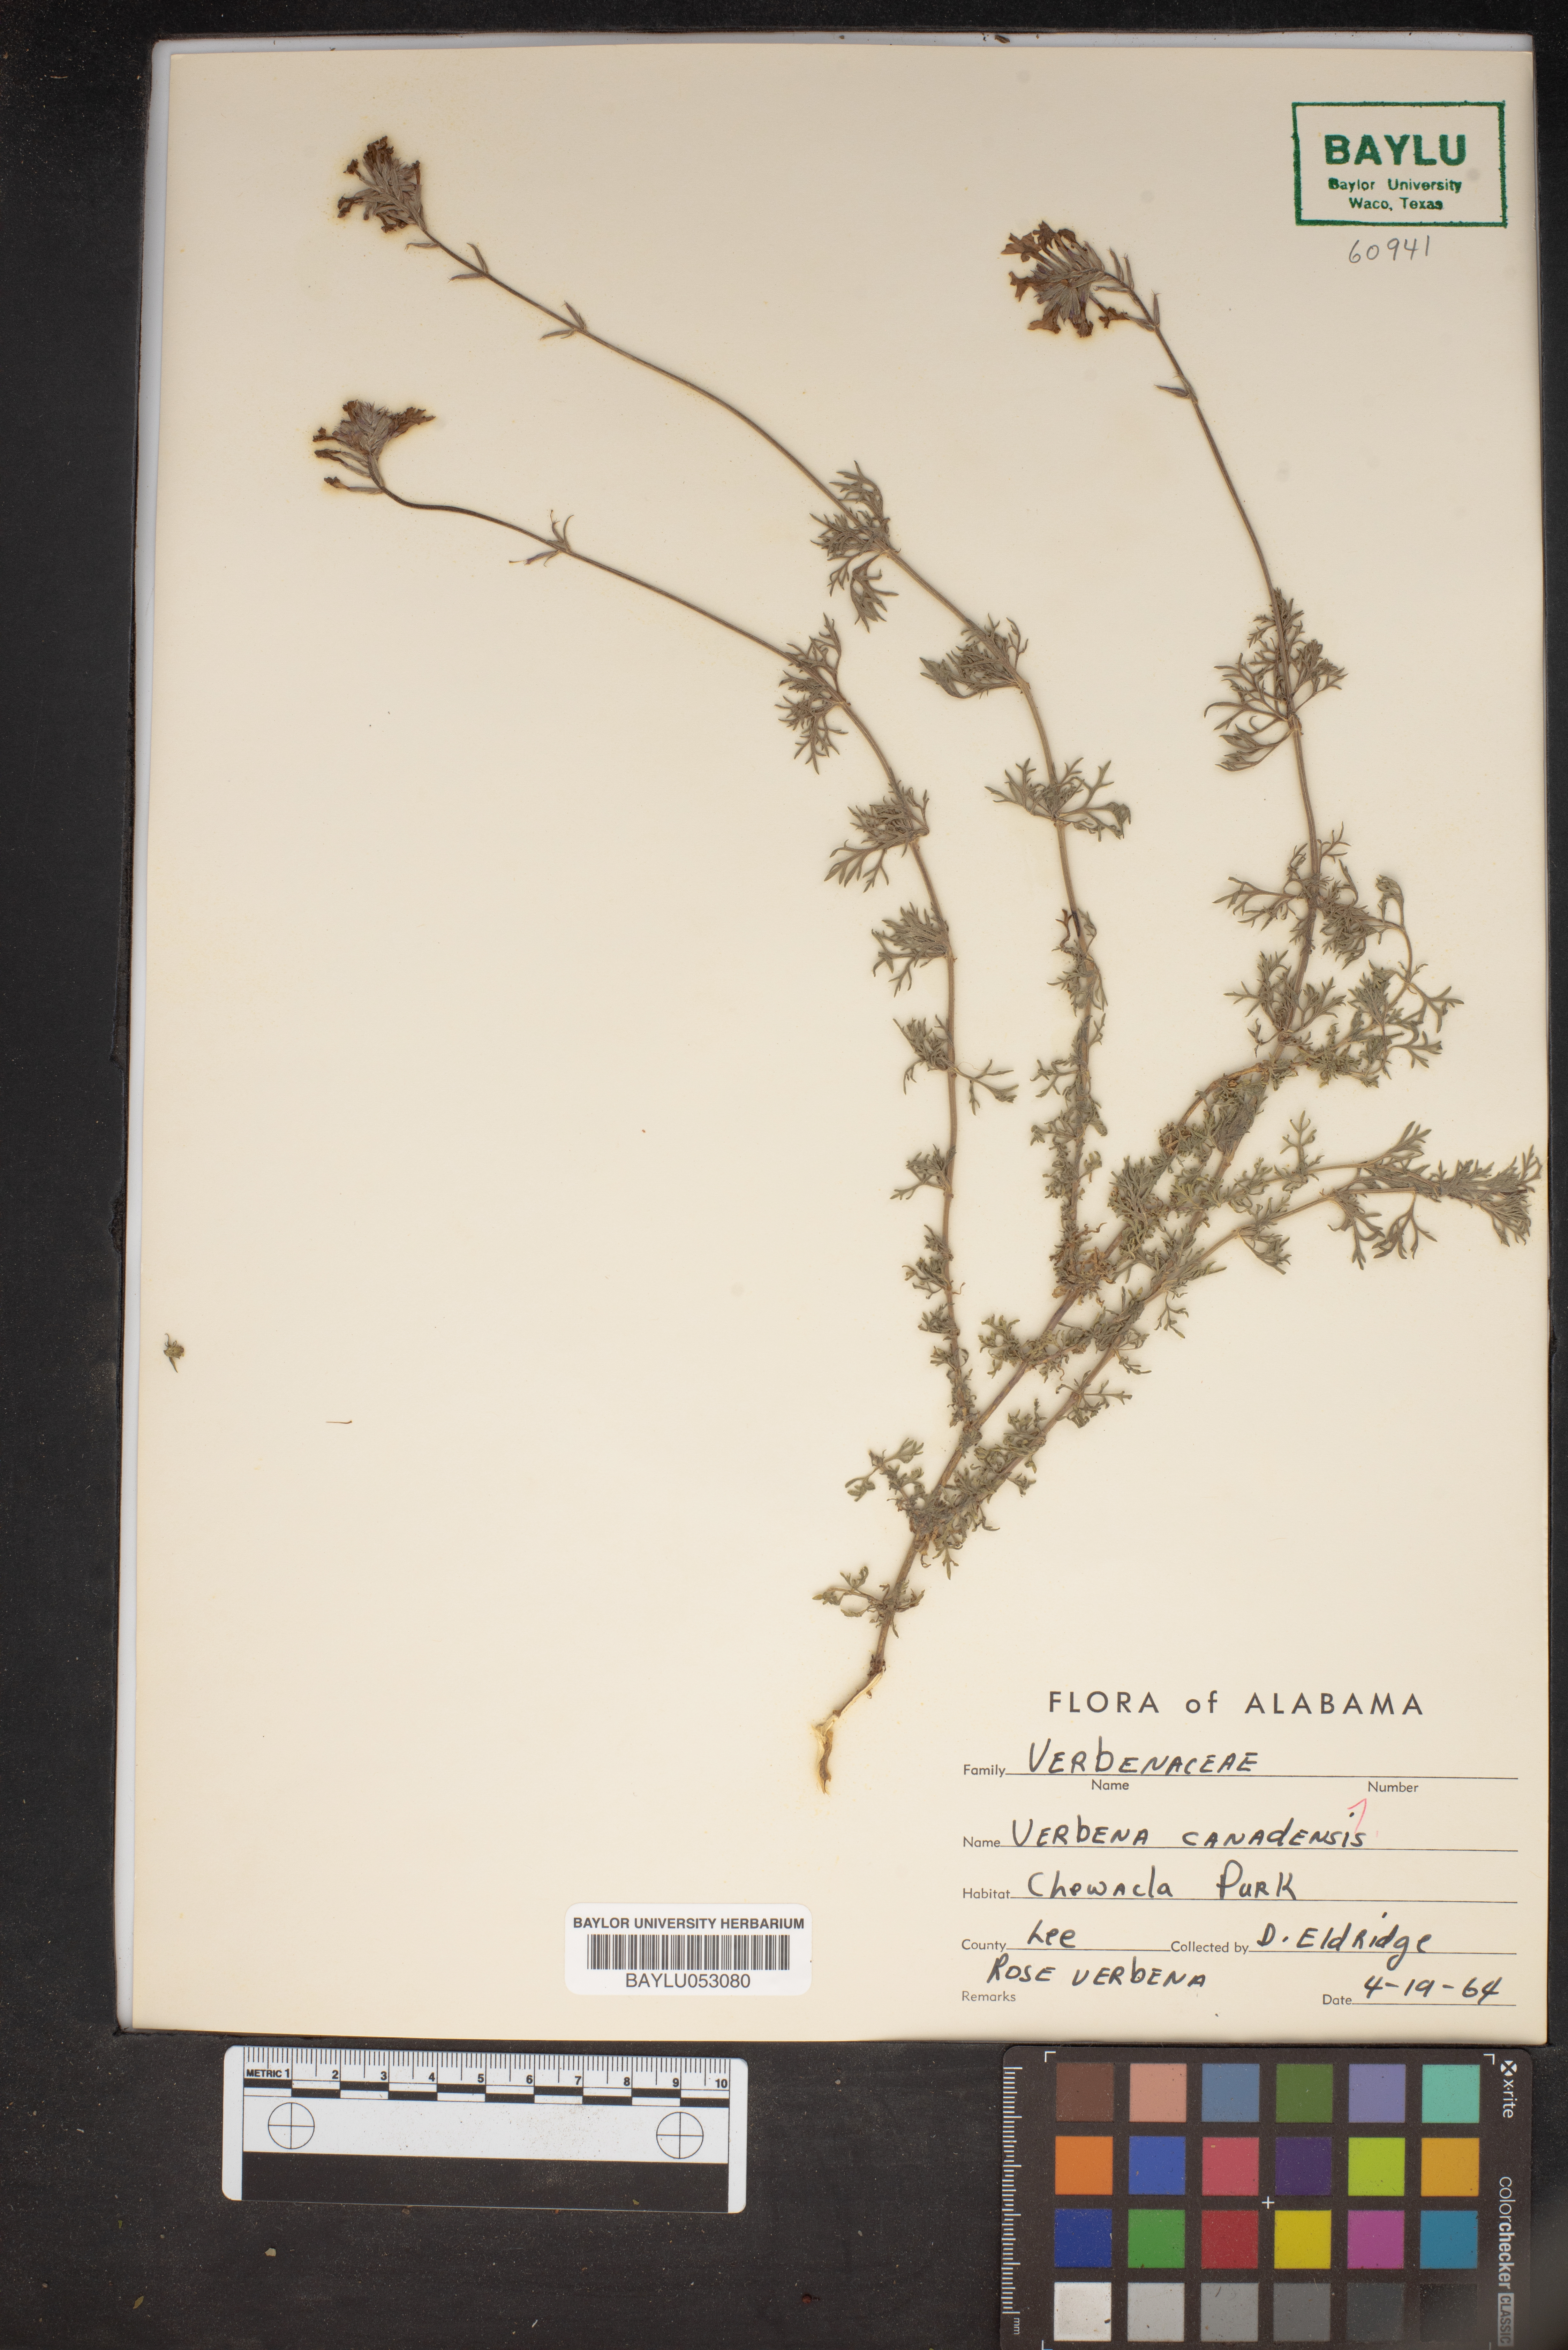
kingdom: Plantae
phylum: Tracheophyta
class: Magnoliopsida
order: Lamiales
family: Verbenaceae
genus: Verbena
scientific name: Verbena canadensis
